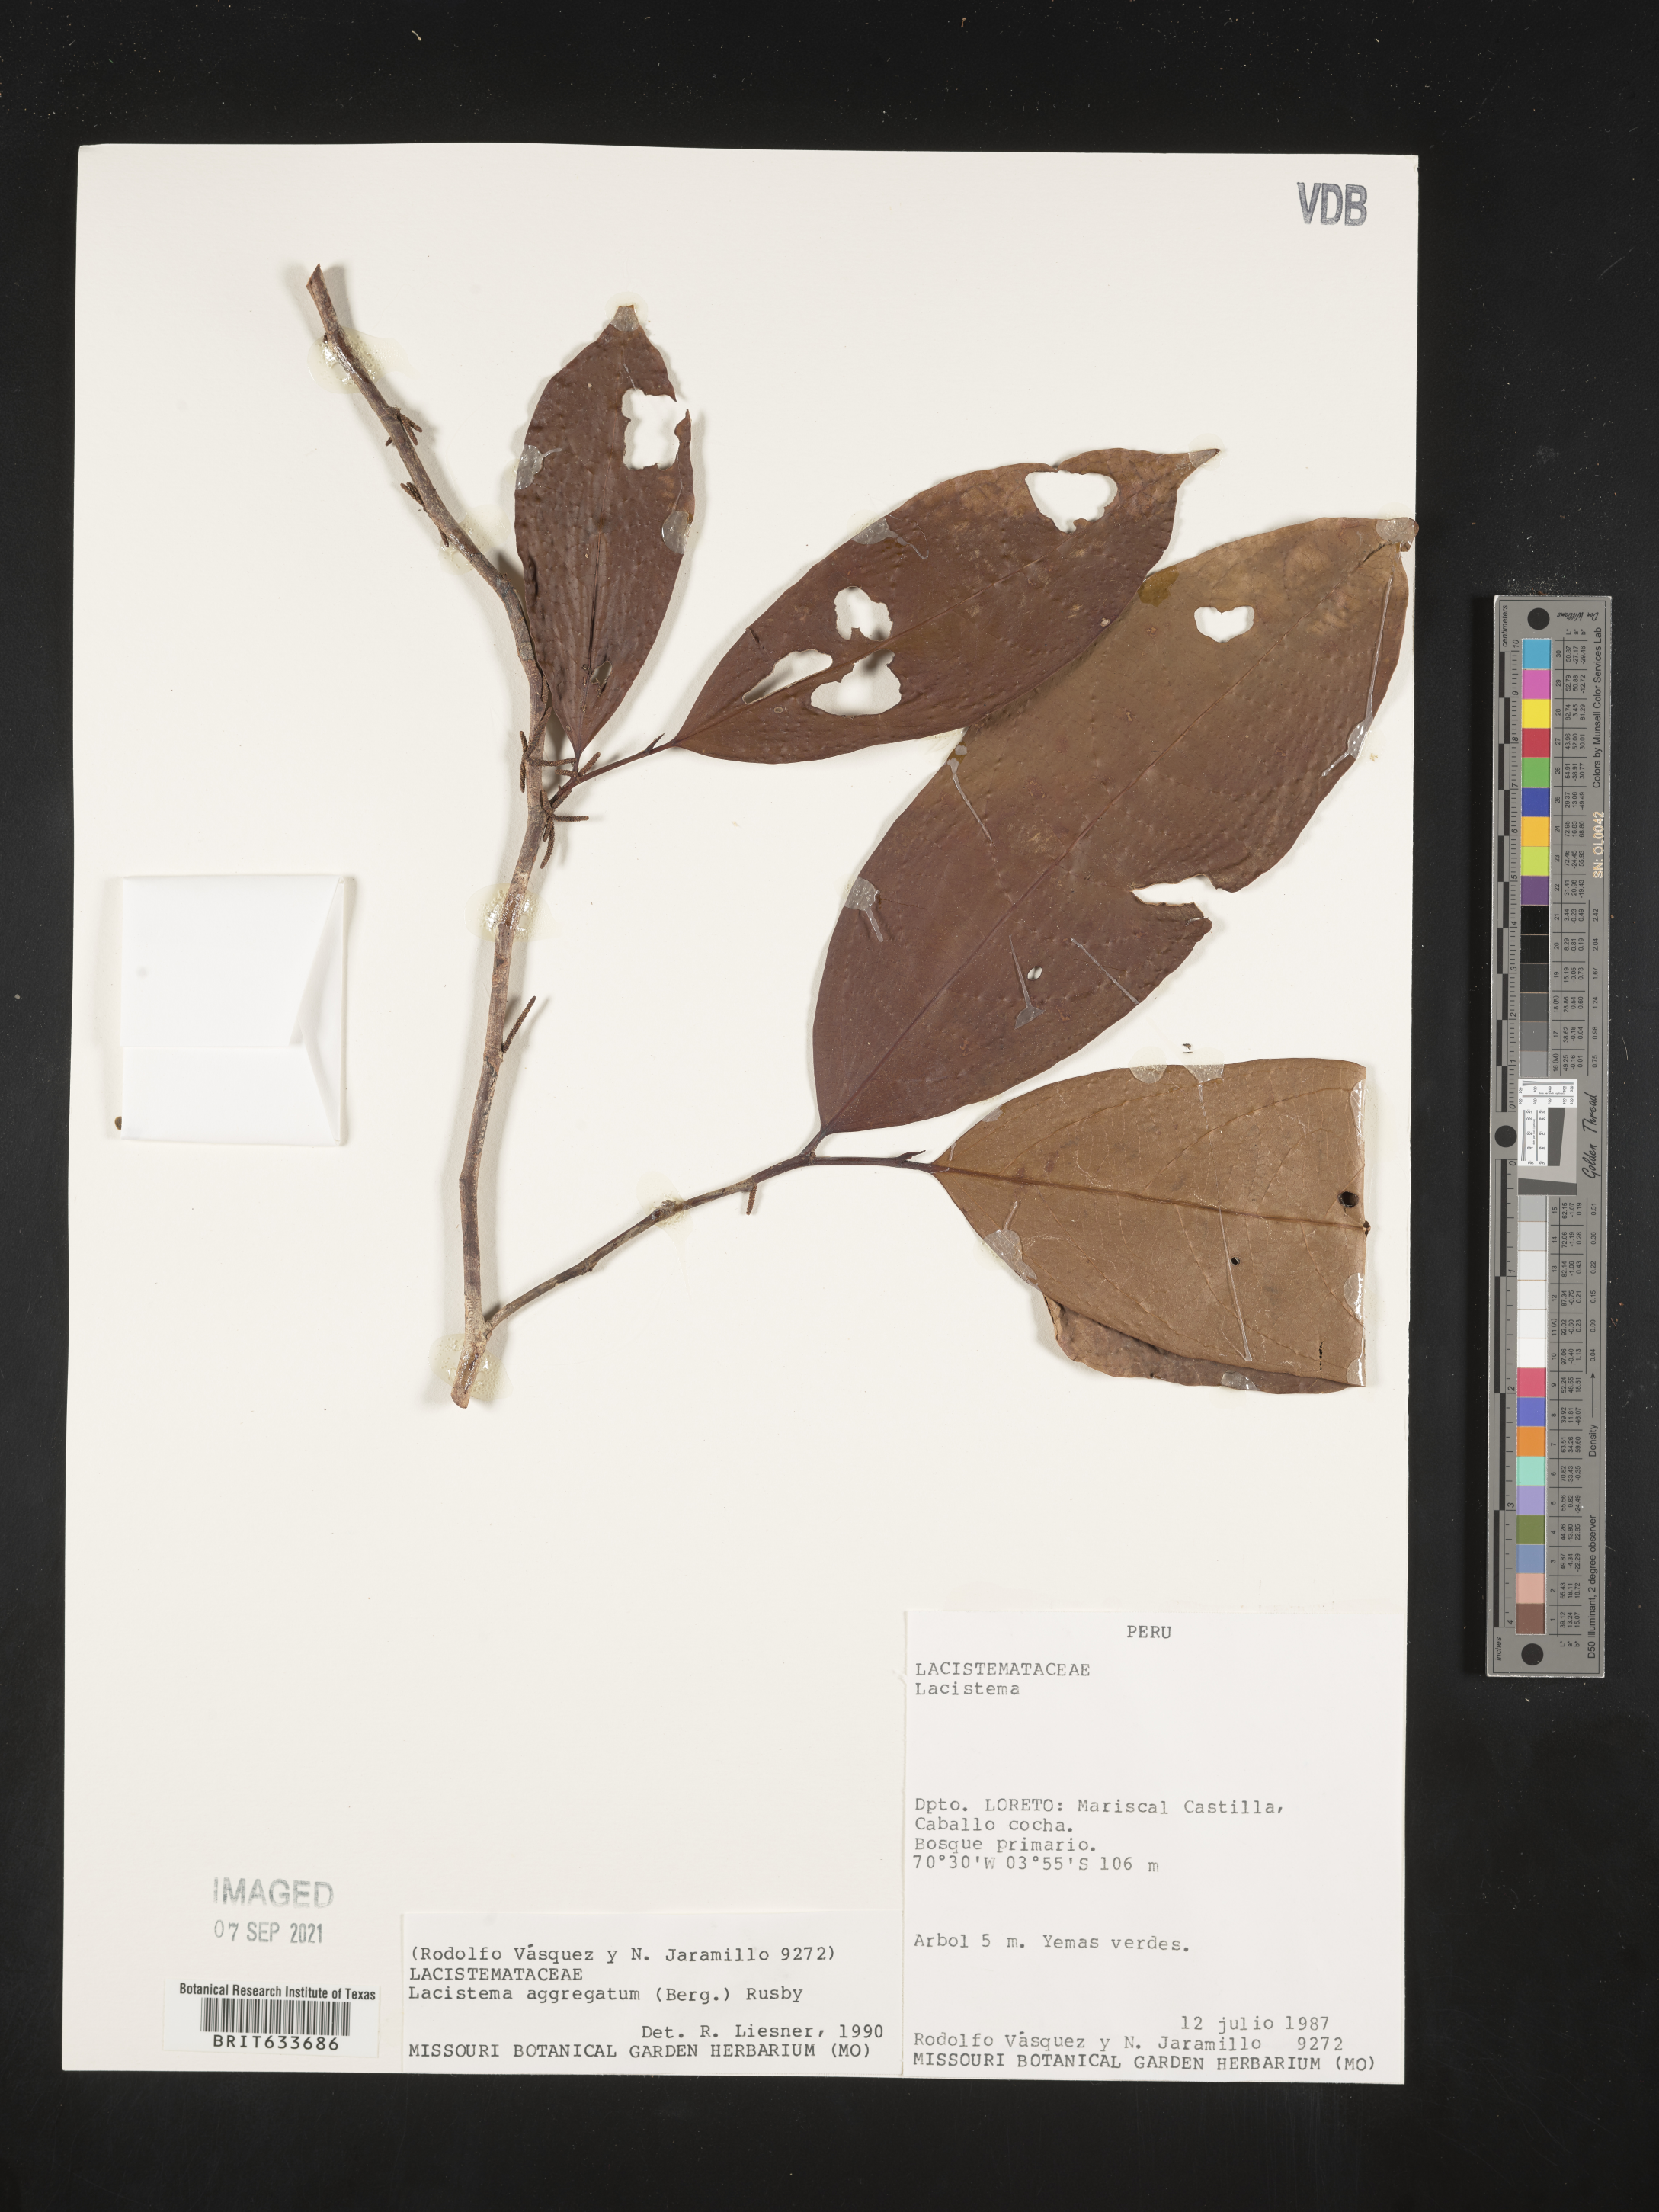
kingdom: Plantae
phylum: Tracheophyta
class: Magnoliopsida
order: Malpighiales
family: Lacistemataceae
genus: Lacistema
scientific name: Lacistema
